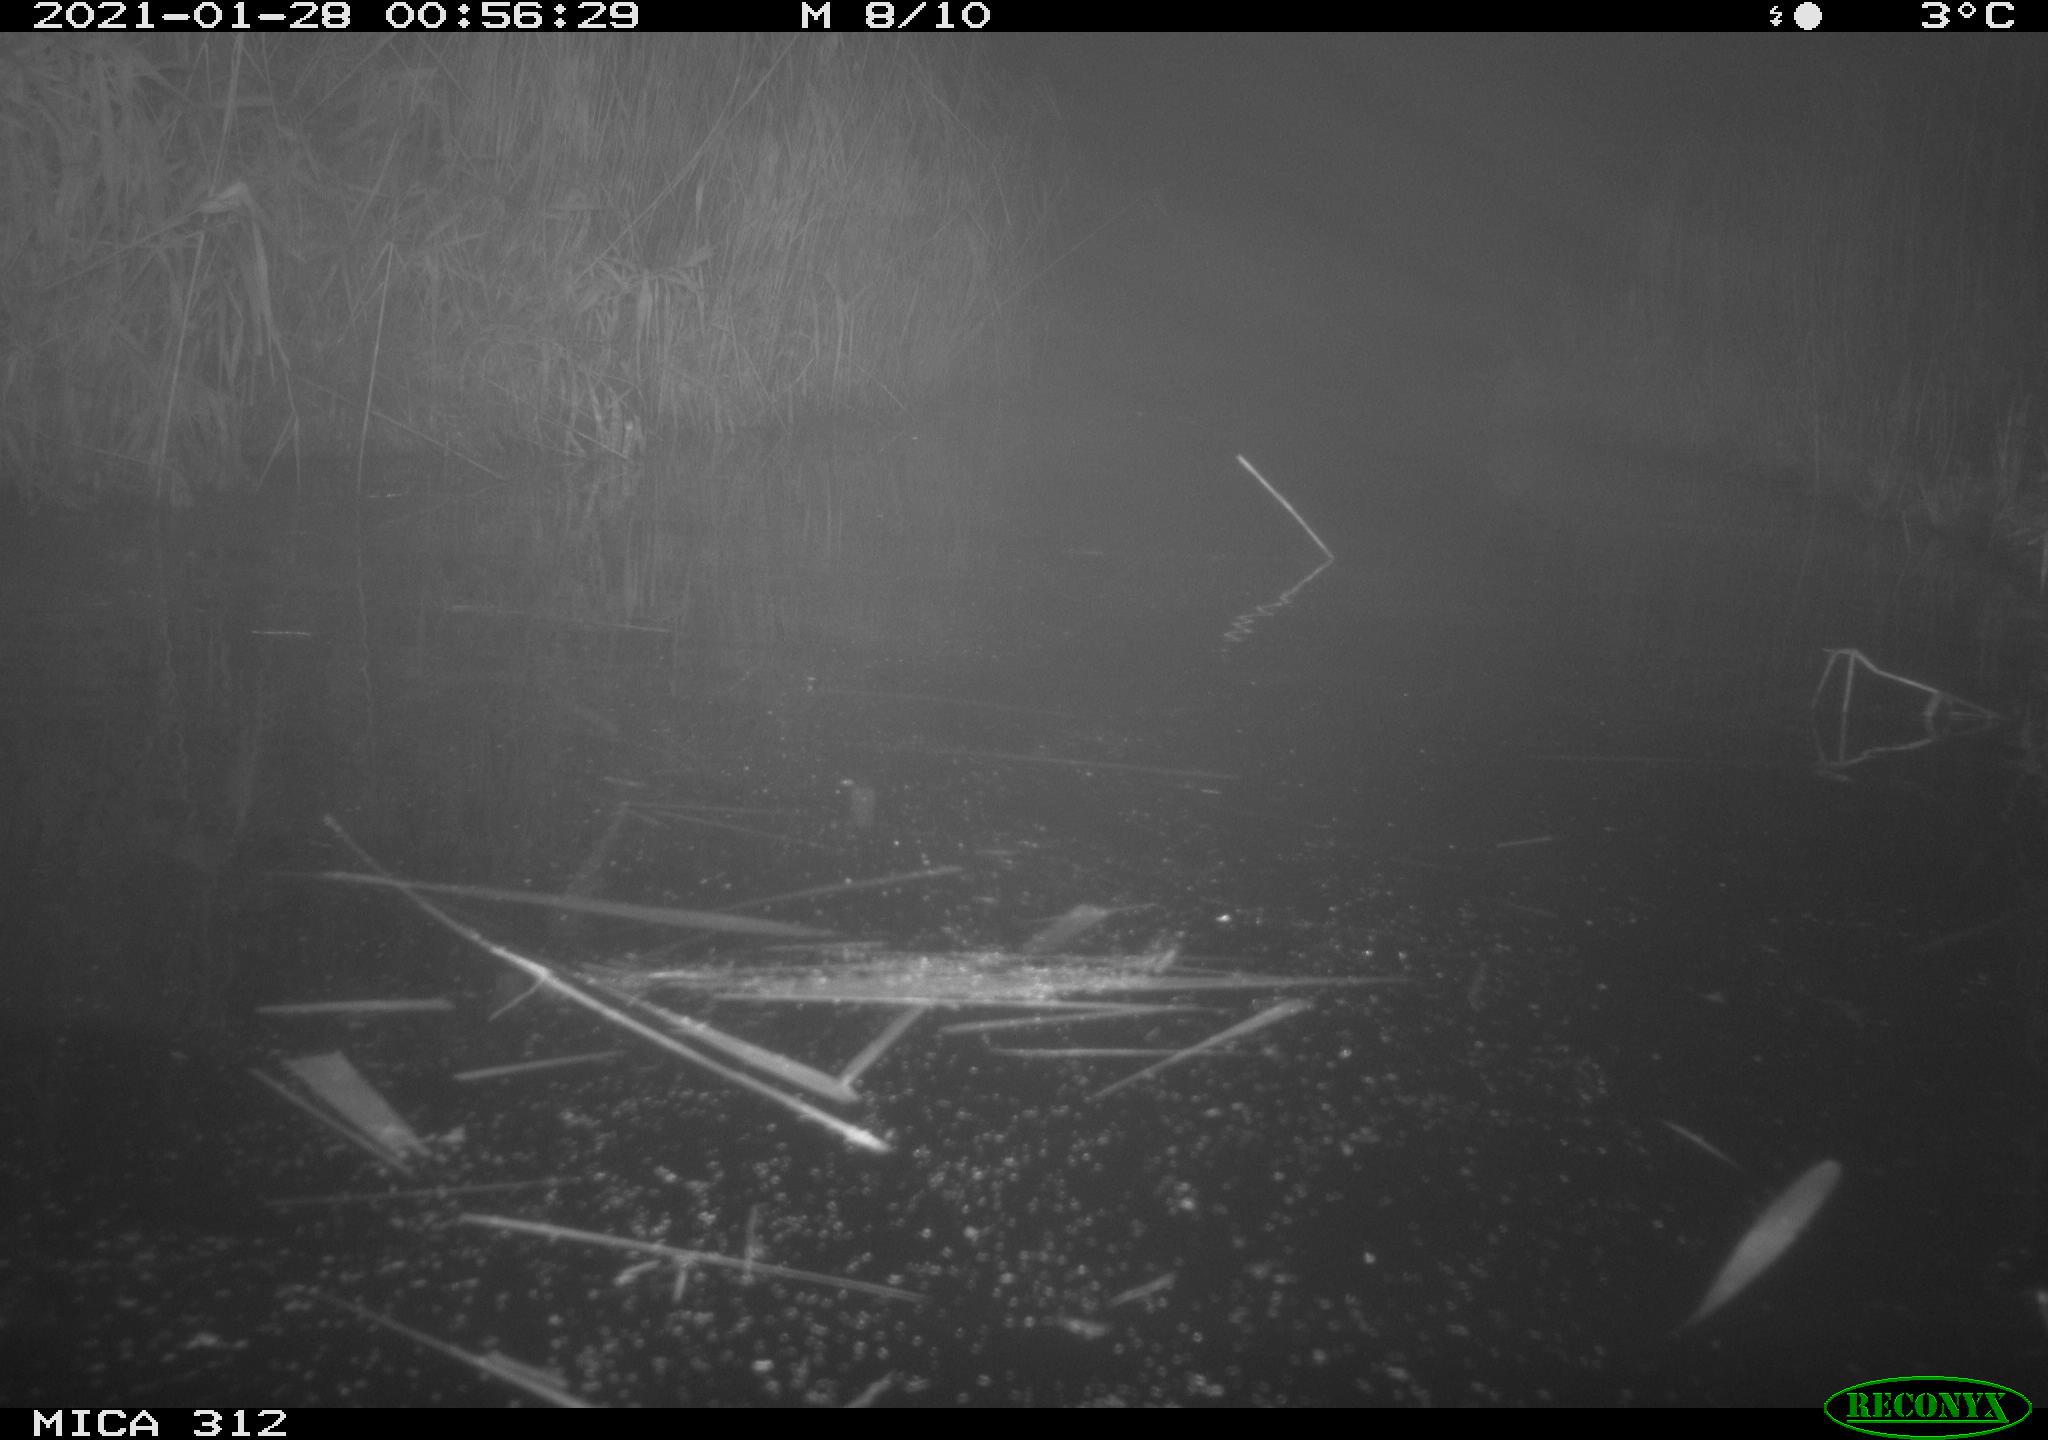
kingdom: Animalia
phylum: Chordata
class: Mammalia
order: Rodentia
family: Cricetidae
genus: Ondatra
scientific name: Ondatra zibethicus
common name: Muskrat
